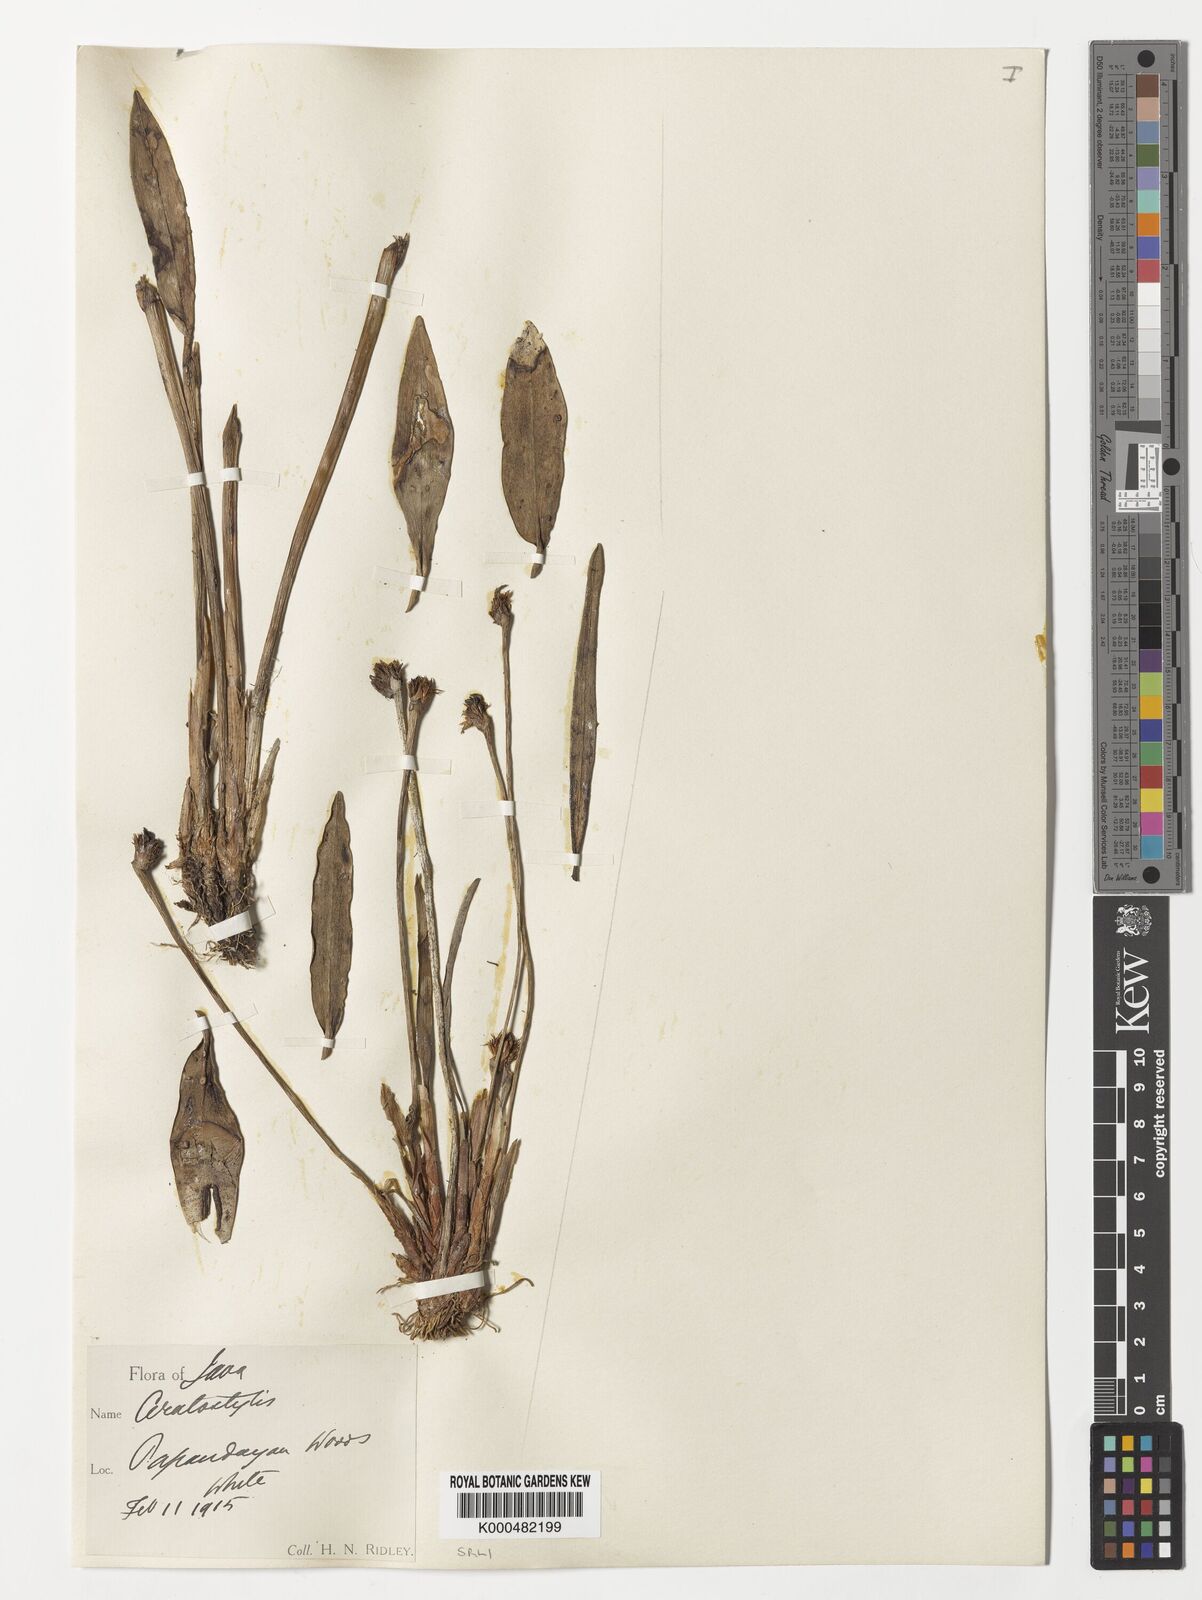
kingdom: Plantae
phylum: Tracheophyta
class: Liliopsida
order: Asparagales
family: Orchidaceae
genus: Ceratostylis
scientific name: Ceratostylis
